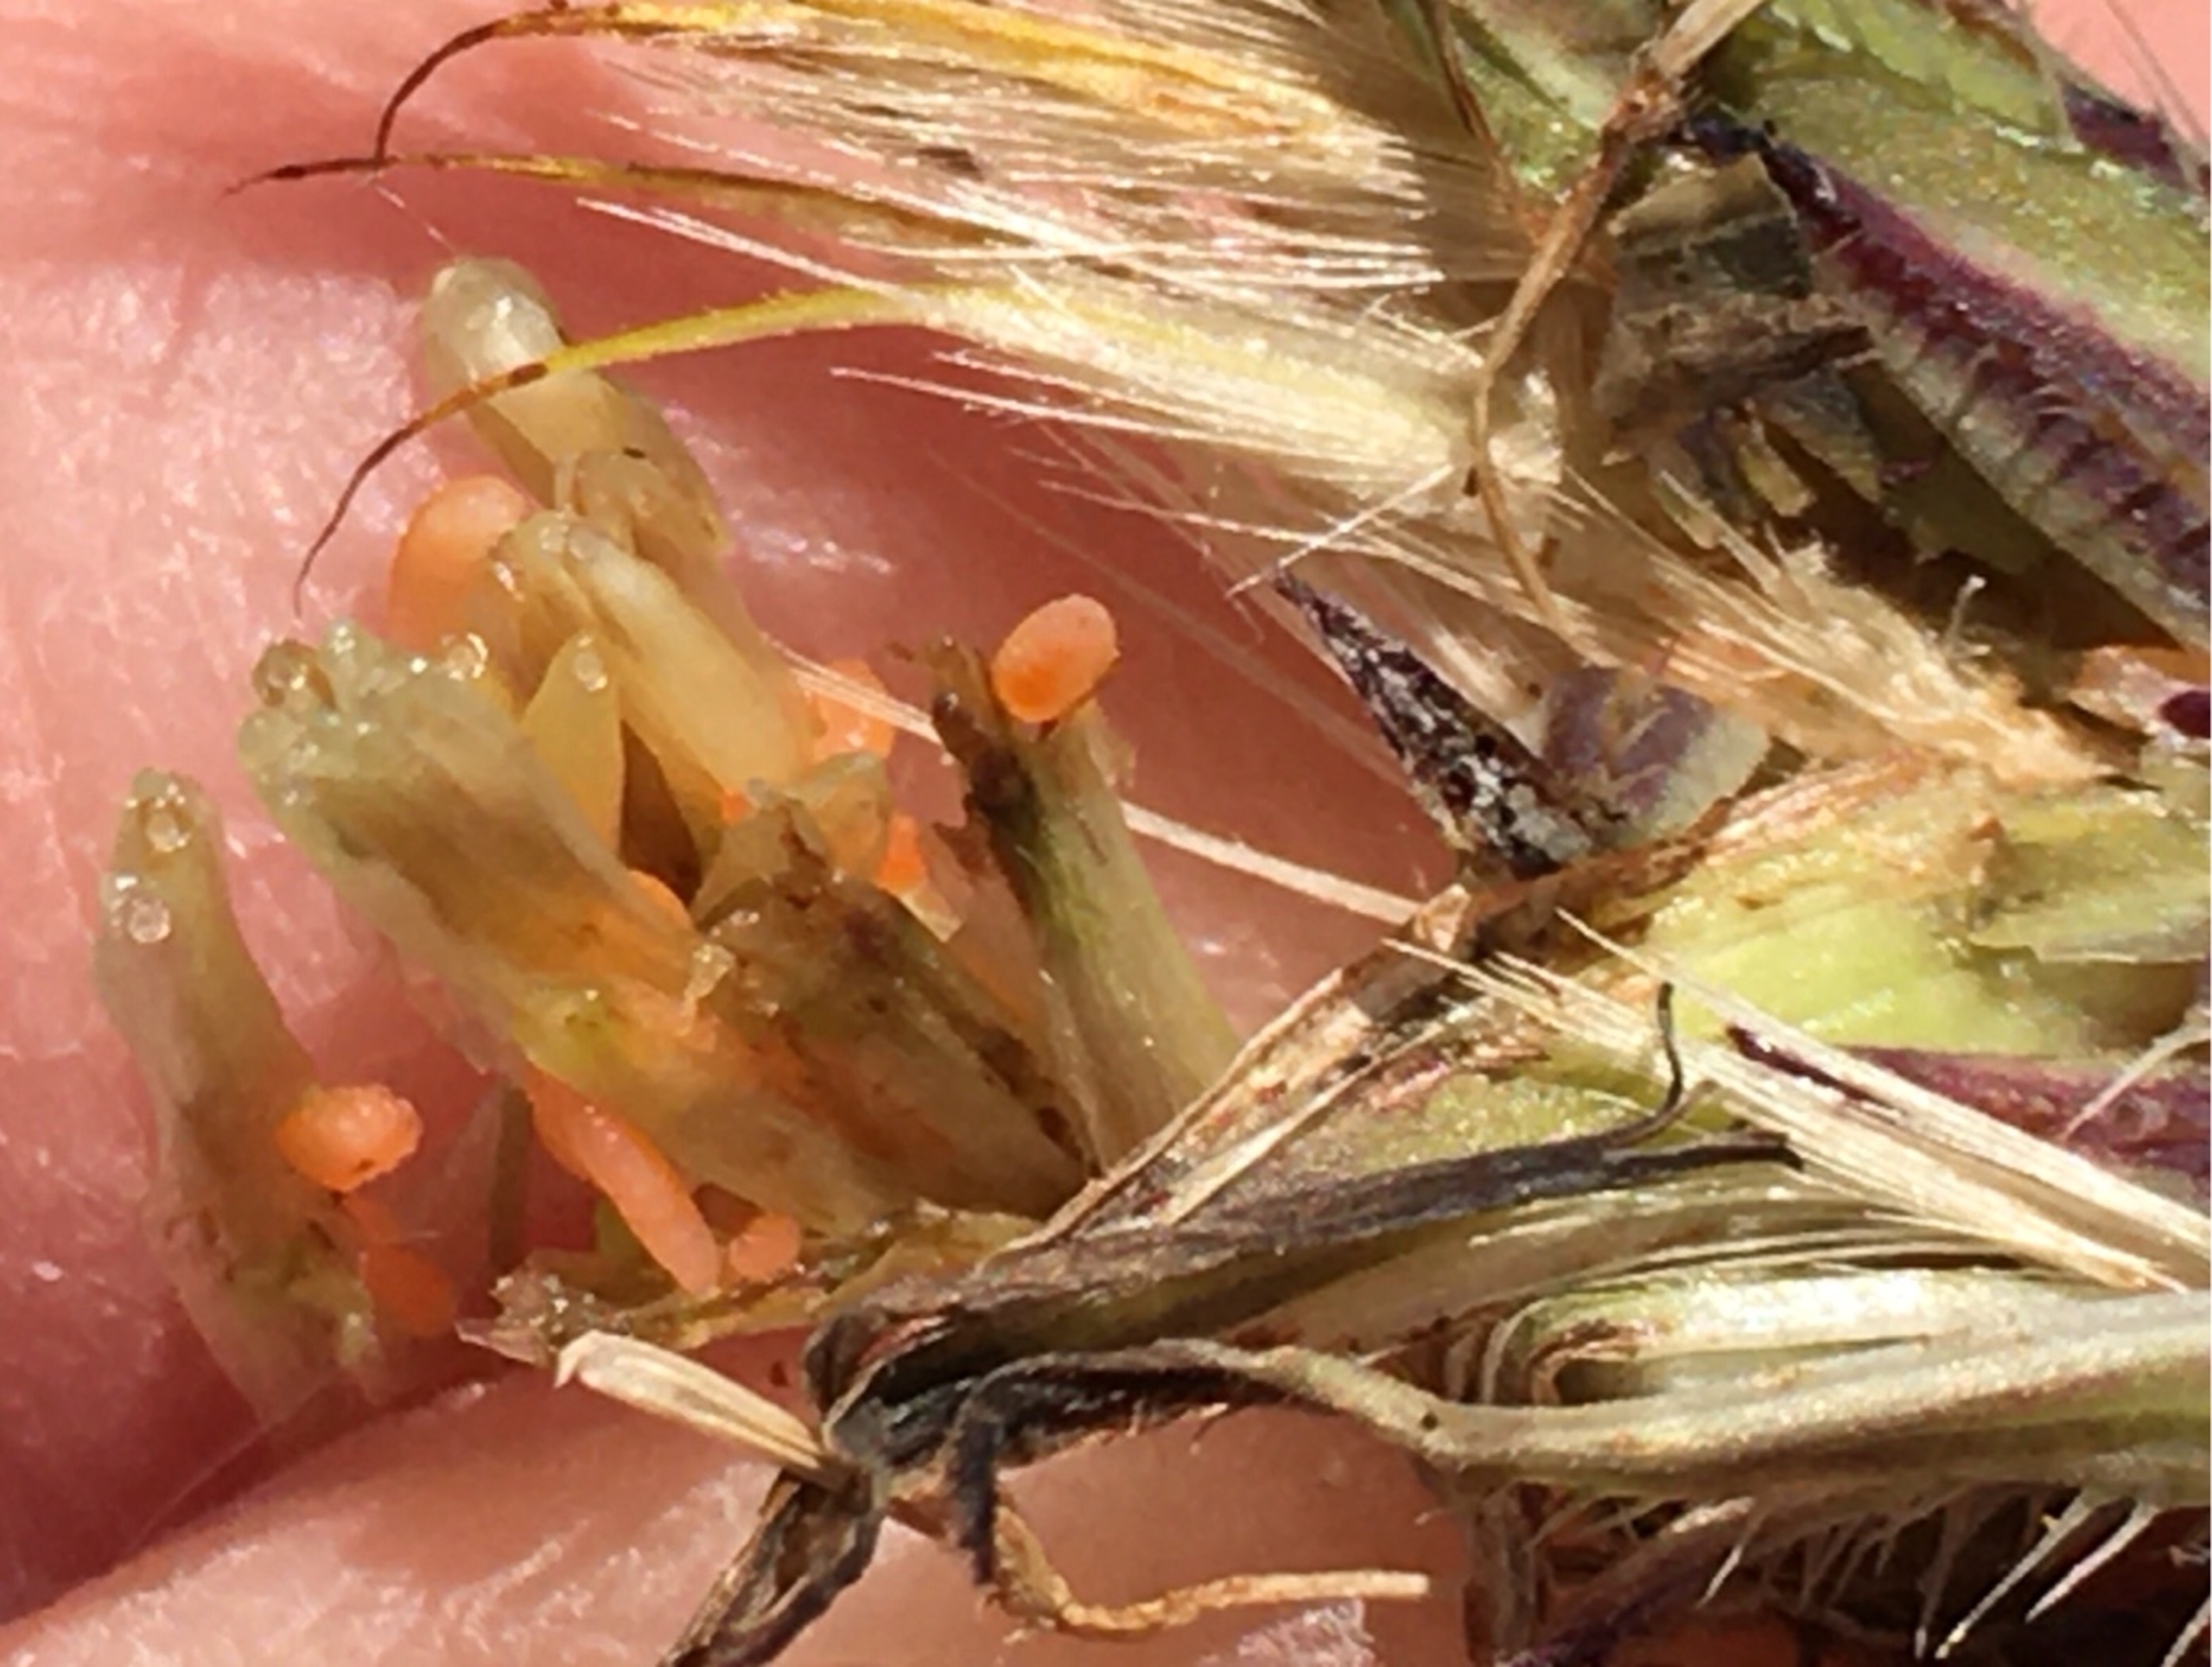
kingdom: Animalia
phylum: Arthropoda
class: Insecta
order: Diptera
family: Cecidomyiidae
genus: Jaapiella
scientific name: Jaapiella hypochoeridis
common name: Orange kongepengalmyg
